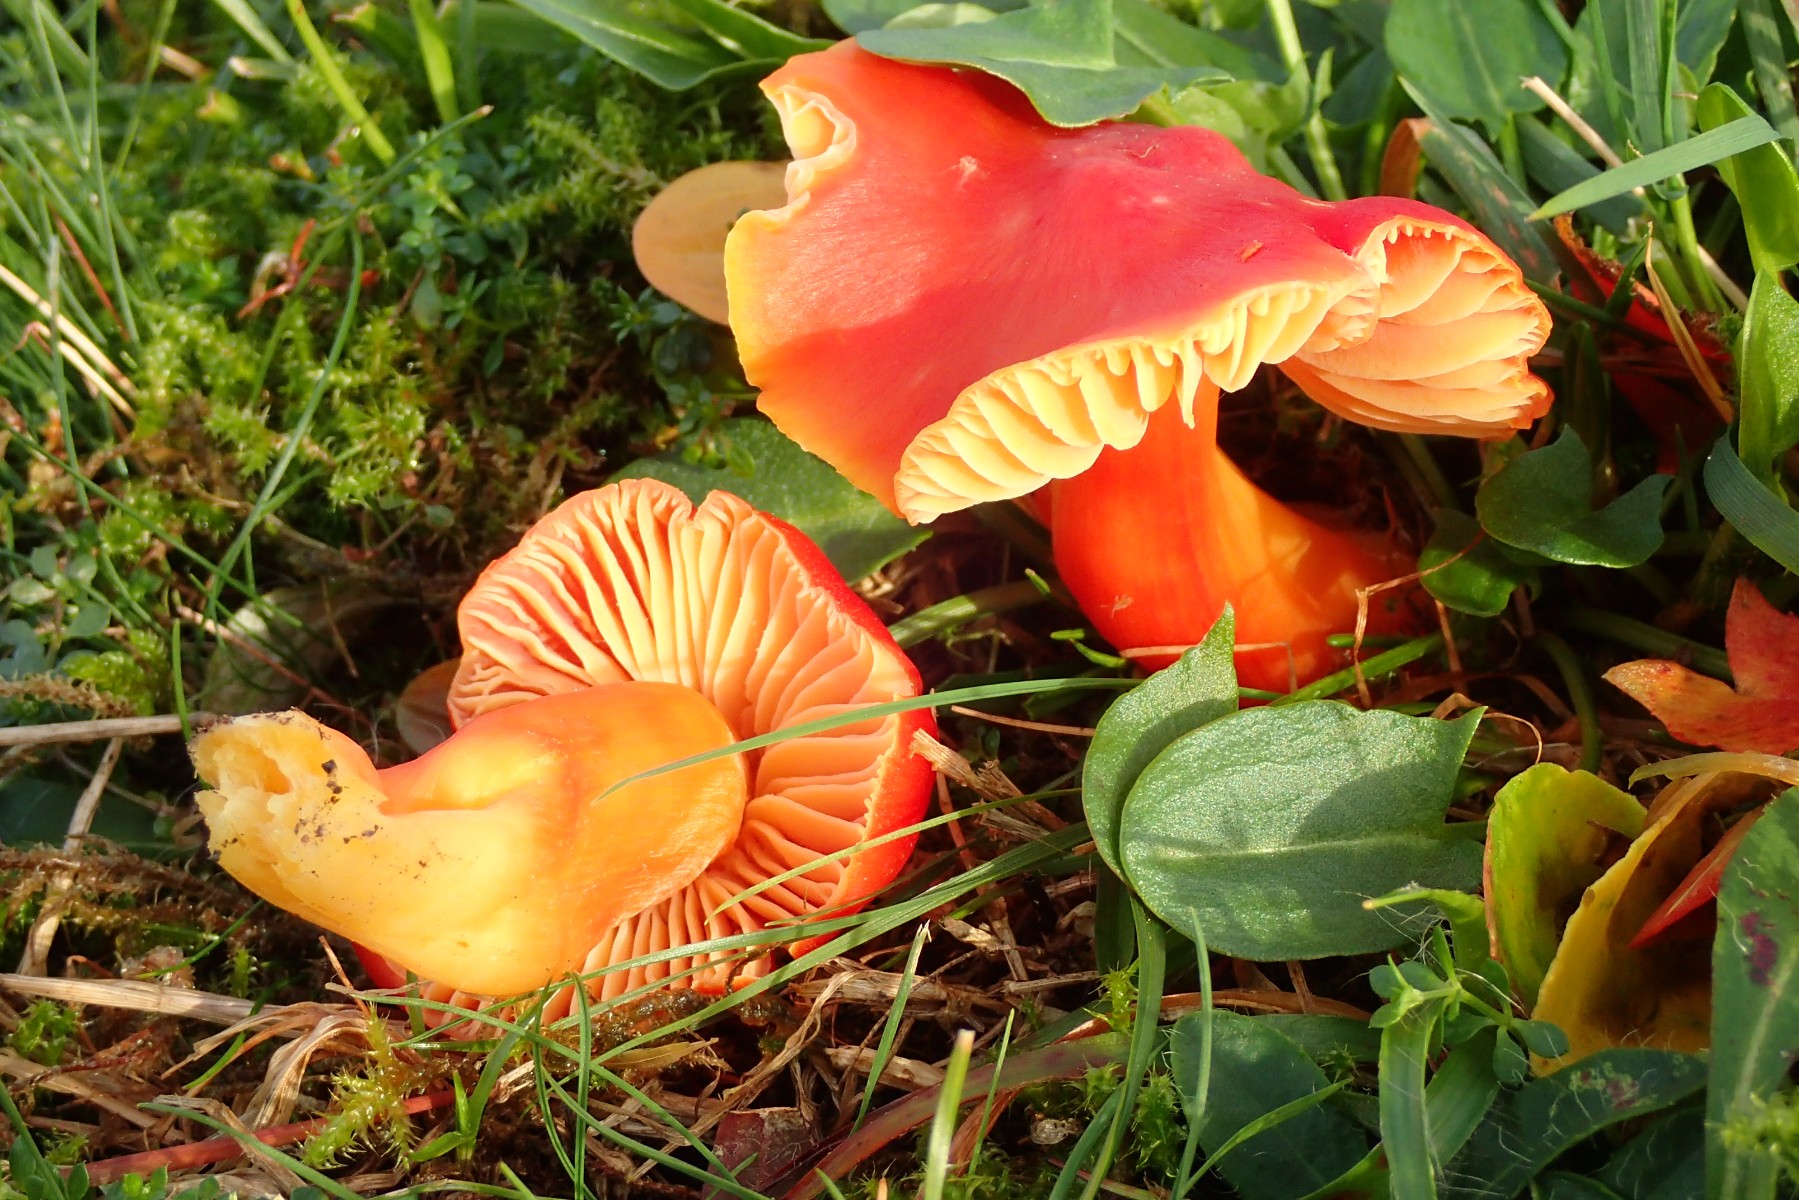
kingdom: Fungi
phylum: Basidiomycota
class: Agaricomycetes
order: Agaricales
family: Hygrophoraceae
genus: Hygrocybe
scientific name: Hygrocybe splendidissima
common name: knaldrød vokshat
